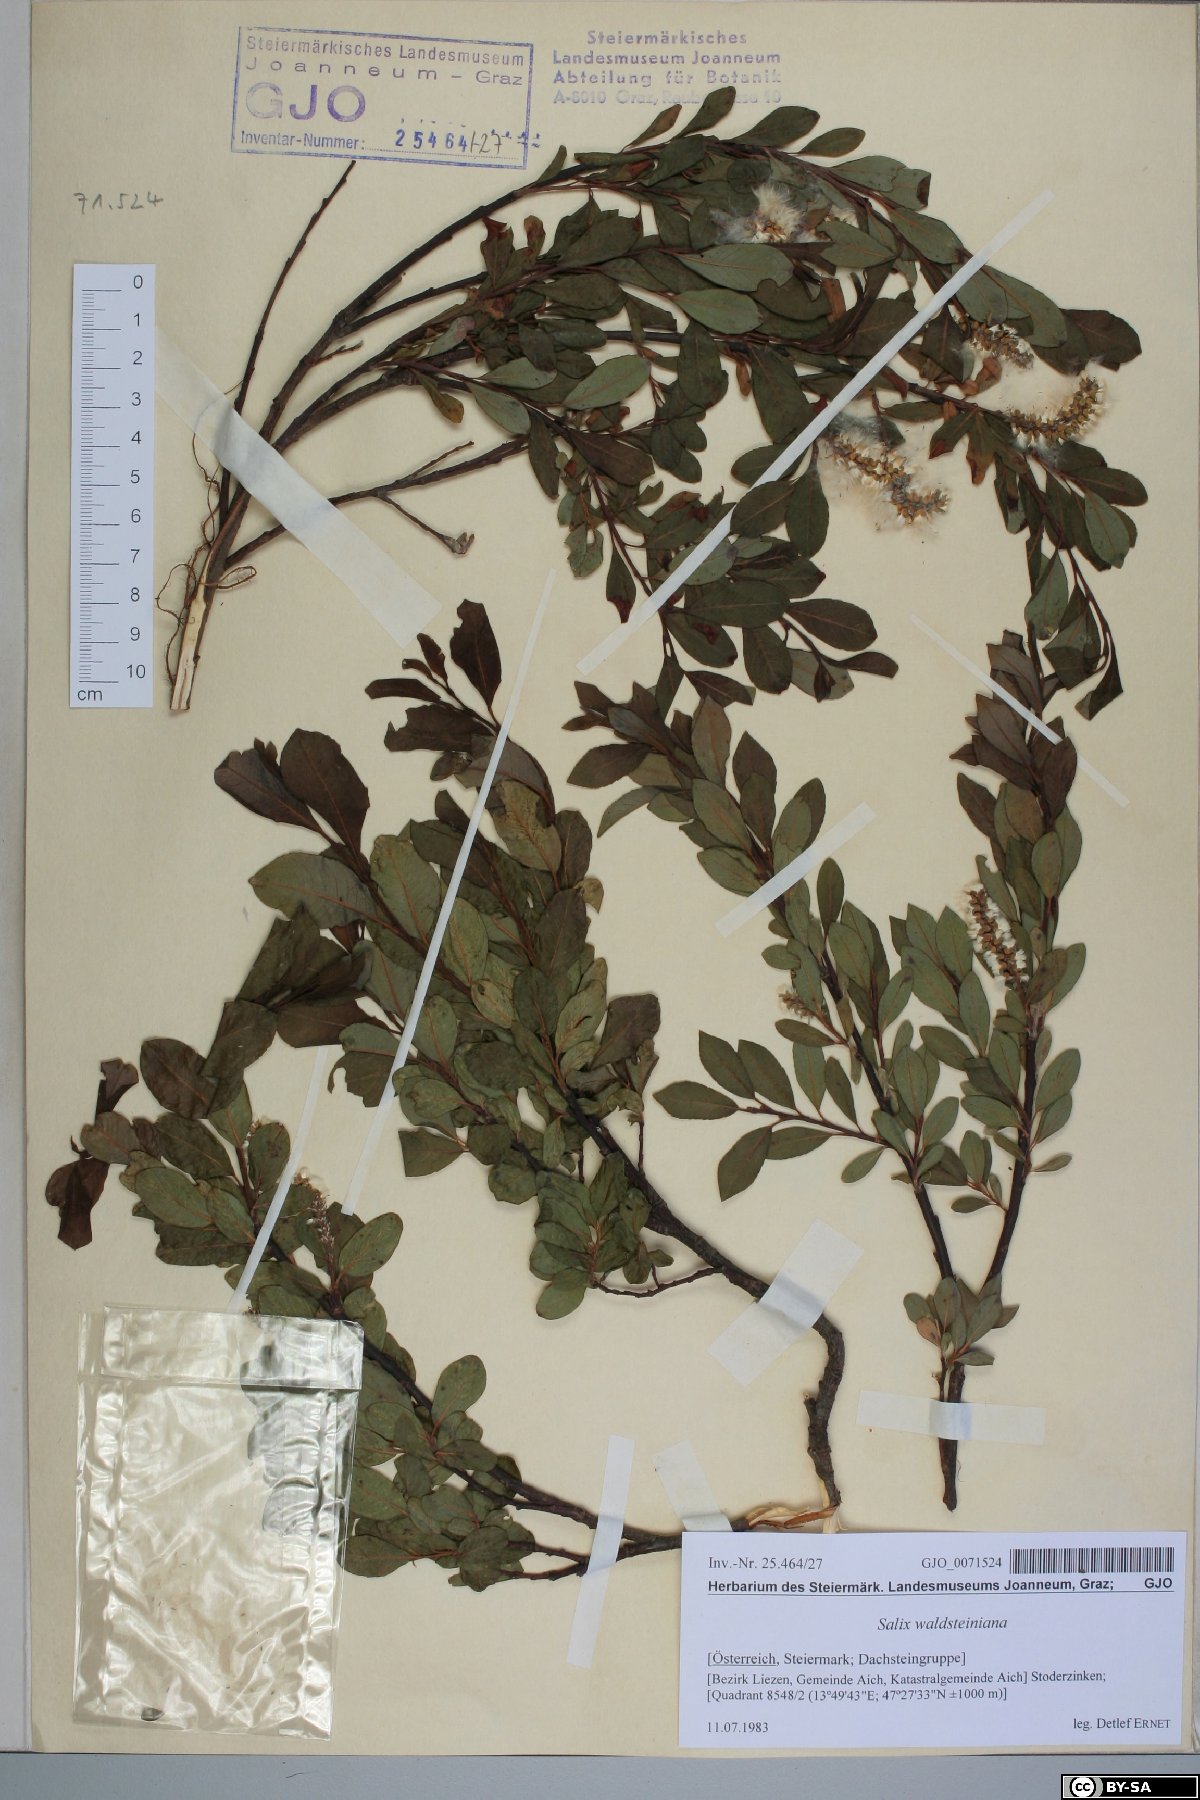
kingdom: Plantae
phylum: Tracheophyta
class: Magnoliopsida
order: Malpighiales
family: Salicaceae
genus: Salix
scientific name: Salix waldsteiniana
